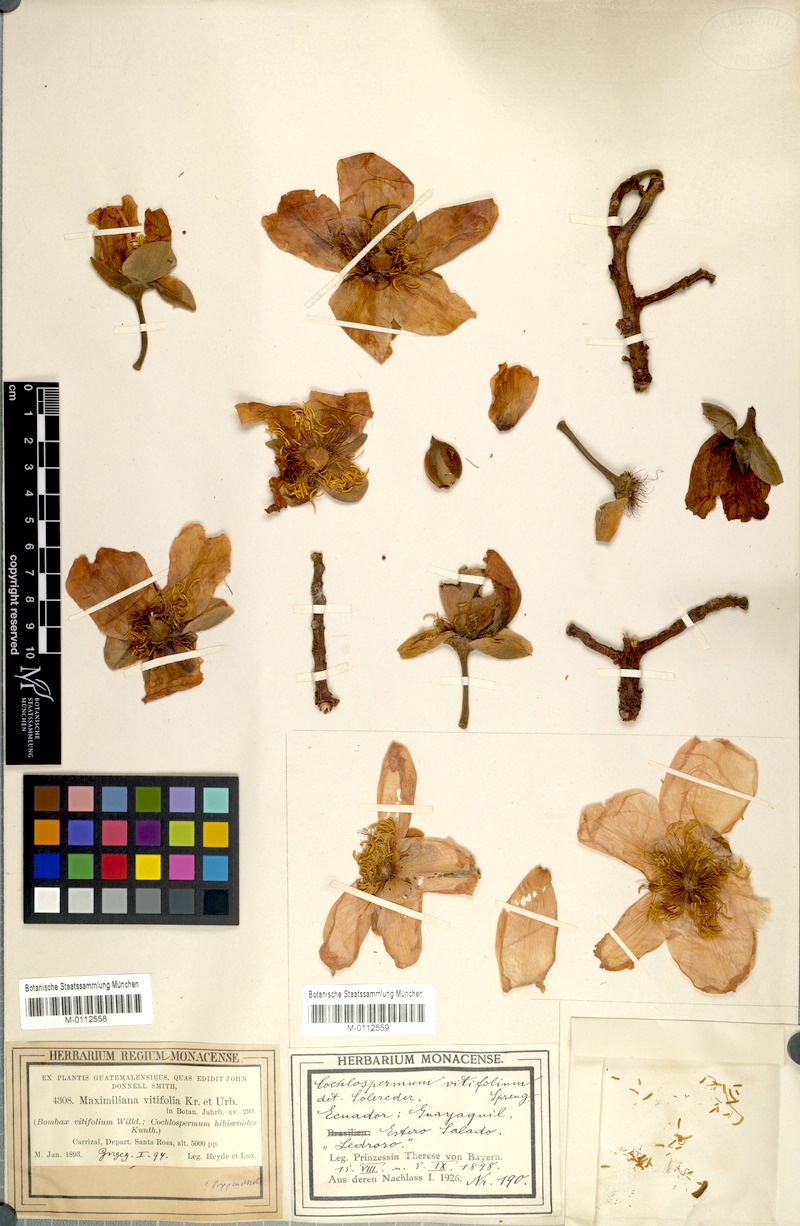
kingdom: Plantae
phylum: Tracheophyta
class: Magnoliopsida
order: Malvales
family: Dipterocarpaceae
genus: Dipterocarpus
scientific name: Dipterocarpus nudus
